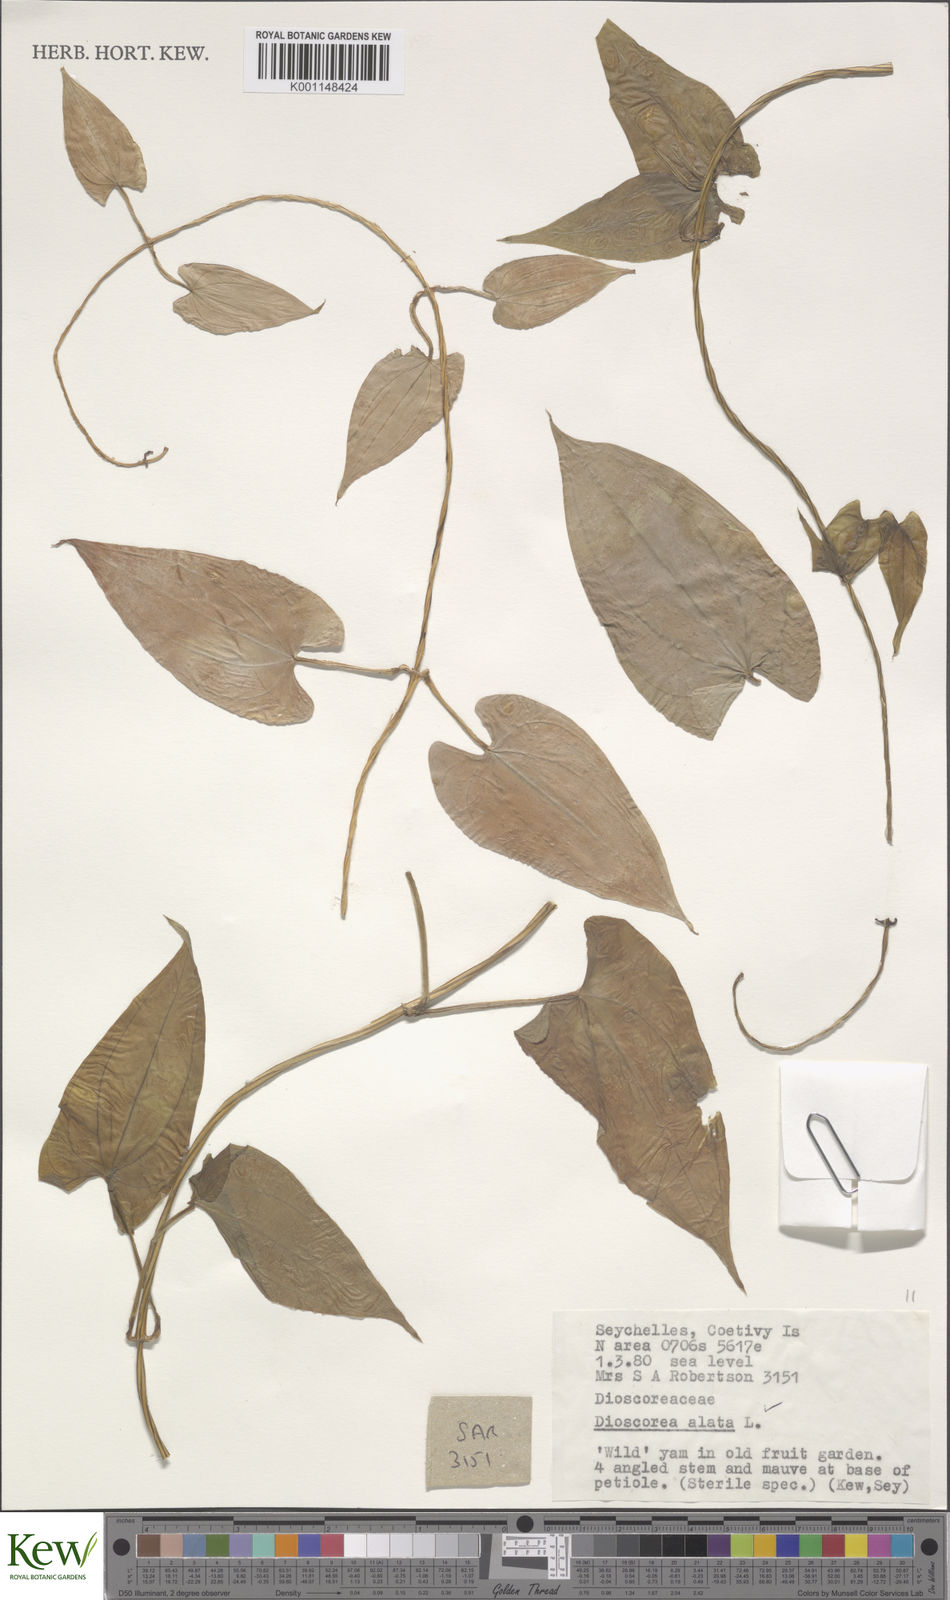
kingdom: Plantae
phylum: Tracheophyta
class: Liliopsida
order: Dioscoreales
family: Dioscoreaceae
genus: Dioscorea
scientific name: Dioscorea alata
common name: Water yam
